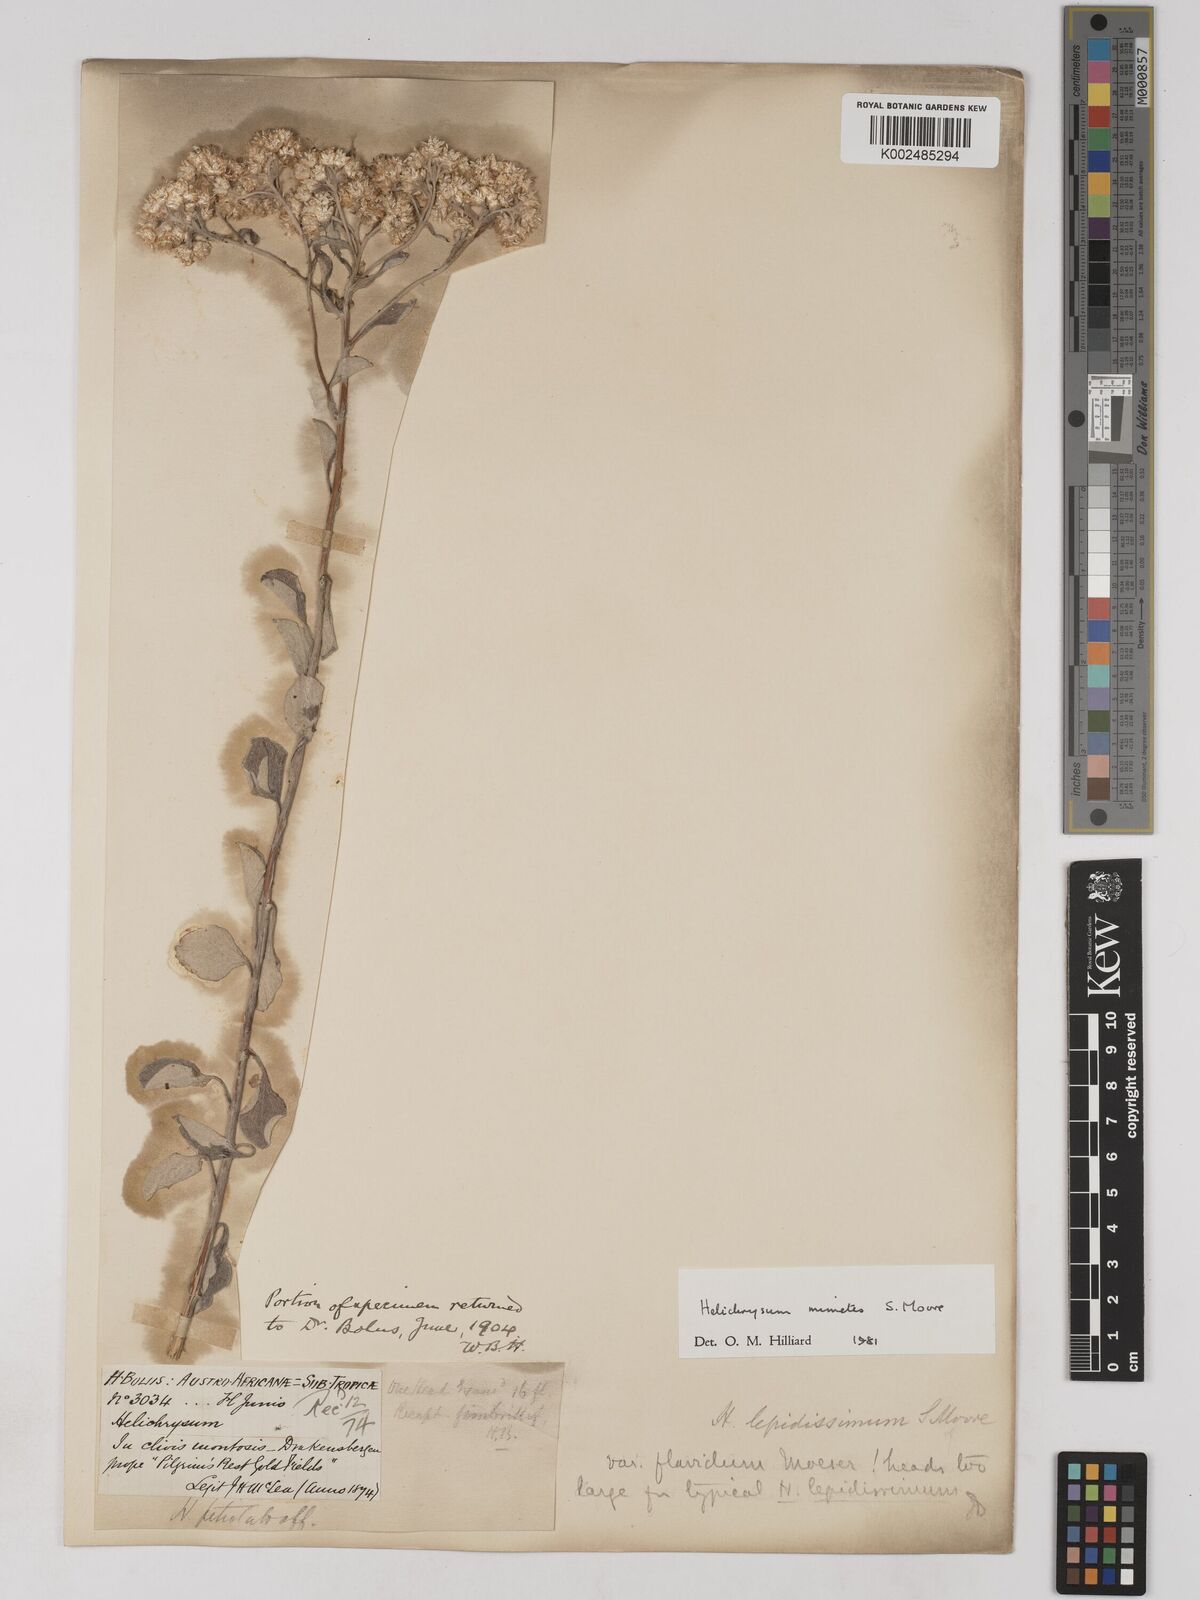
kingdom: Plantae
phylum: Tracheophyta
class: Magnoliopsida
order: Asterales
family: Asteraceae
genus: Helichrysum
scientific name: Helichrysum mimetes
